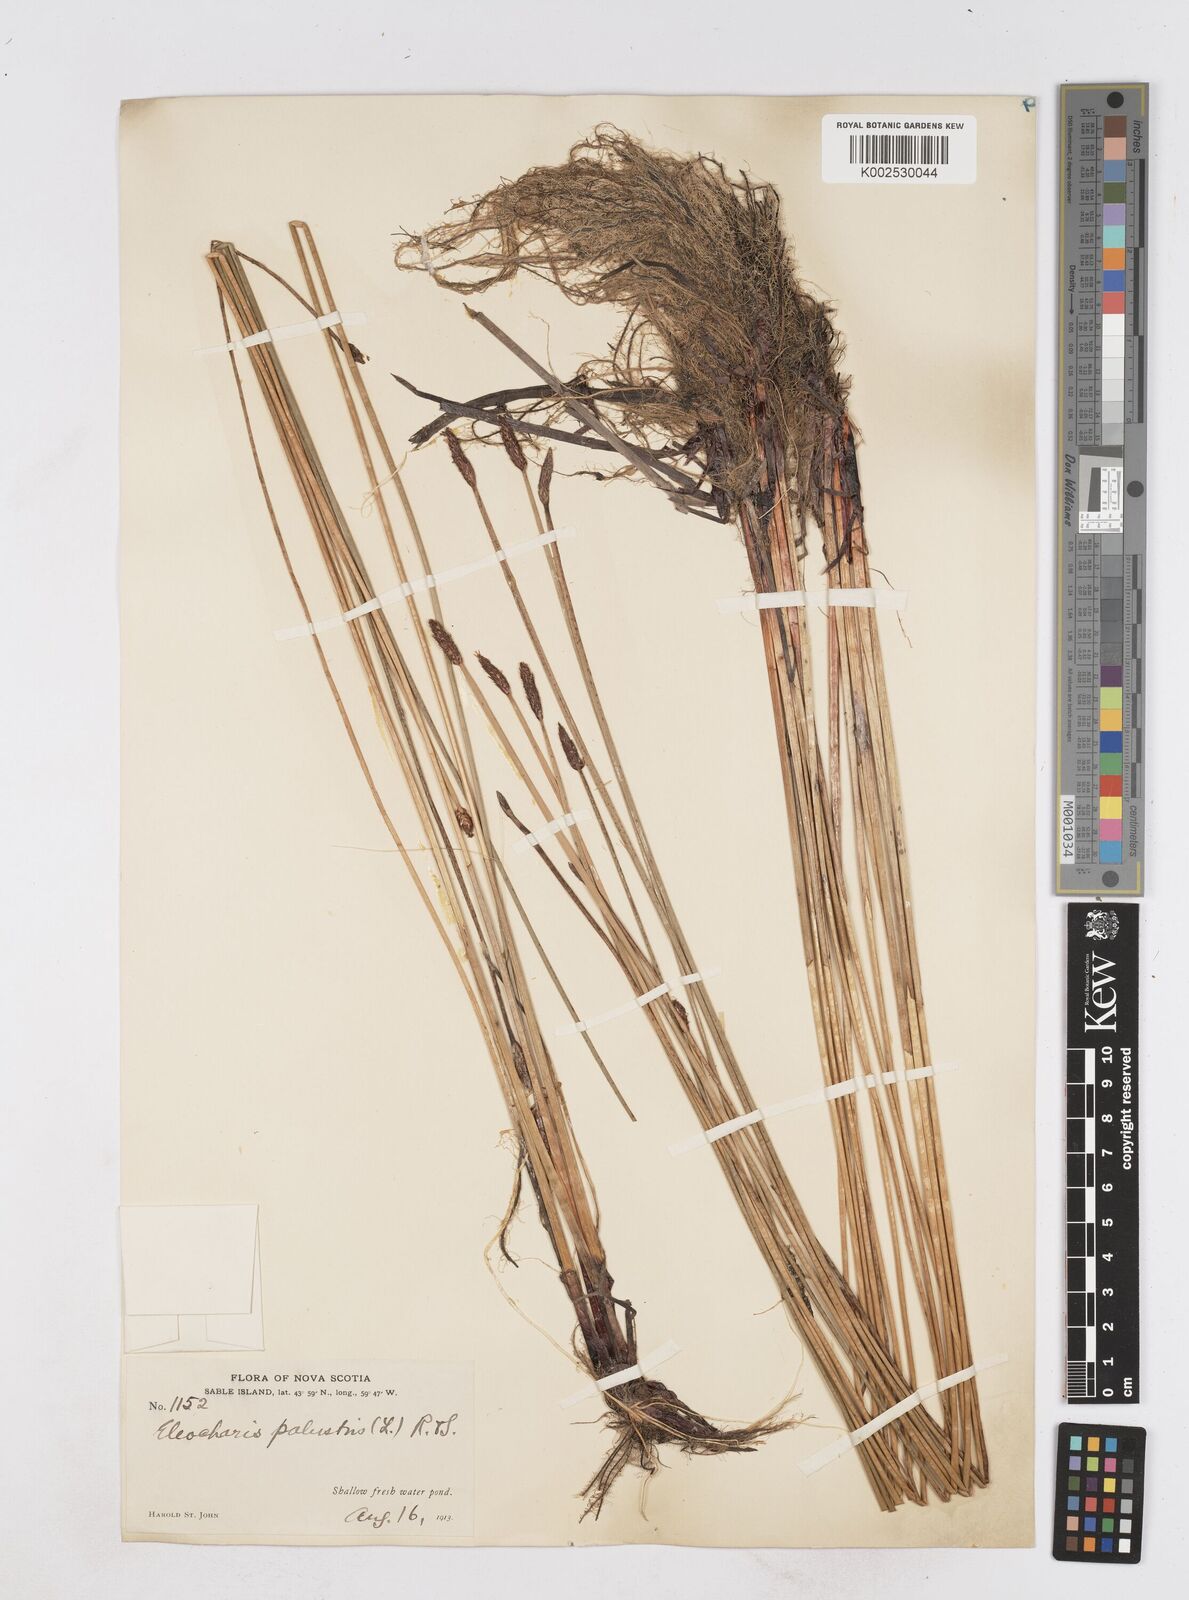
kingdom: Plantae
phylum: Tracheophyta
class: Liliopsida
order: Poales
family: Cyperaceae
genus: Eleocharis
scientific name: Eleocharis palustris
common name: Common spike-rush
